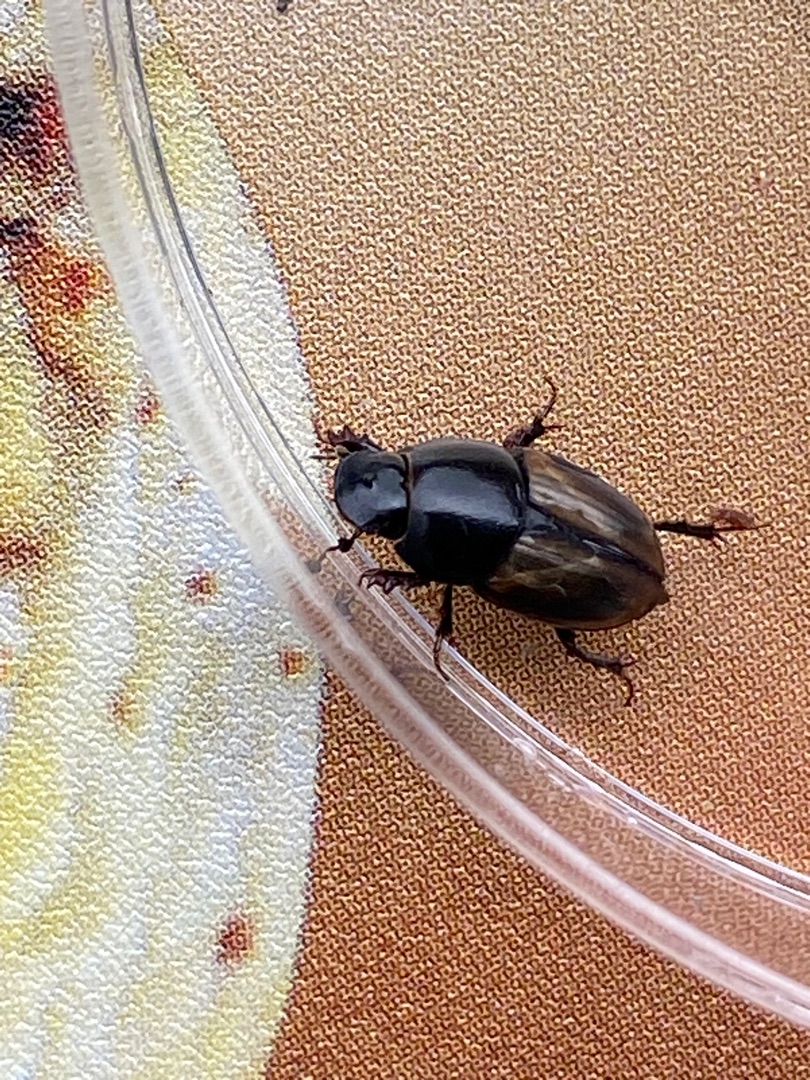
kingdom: Animalia
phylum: Arthropoda
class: Insecta
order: Coleoptera
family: Scarabaeidae
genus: Colobopterus
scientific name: Colobopterus erraticus
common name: Vagabonderende møgbille
